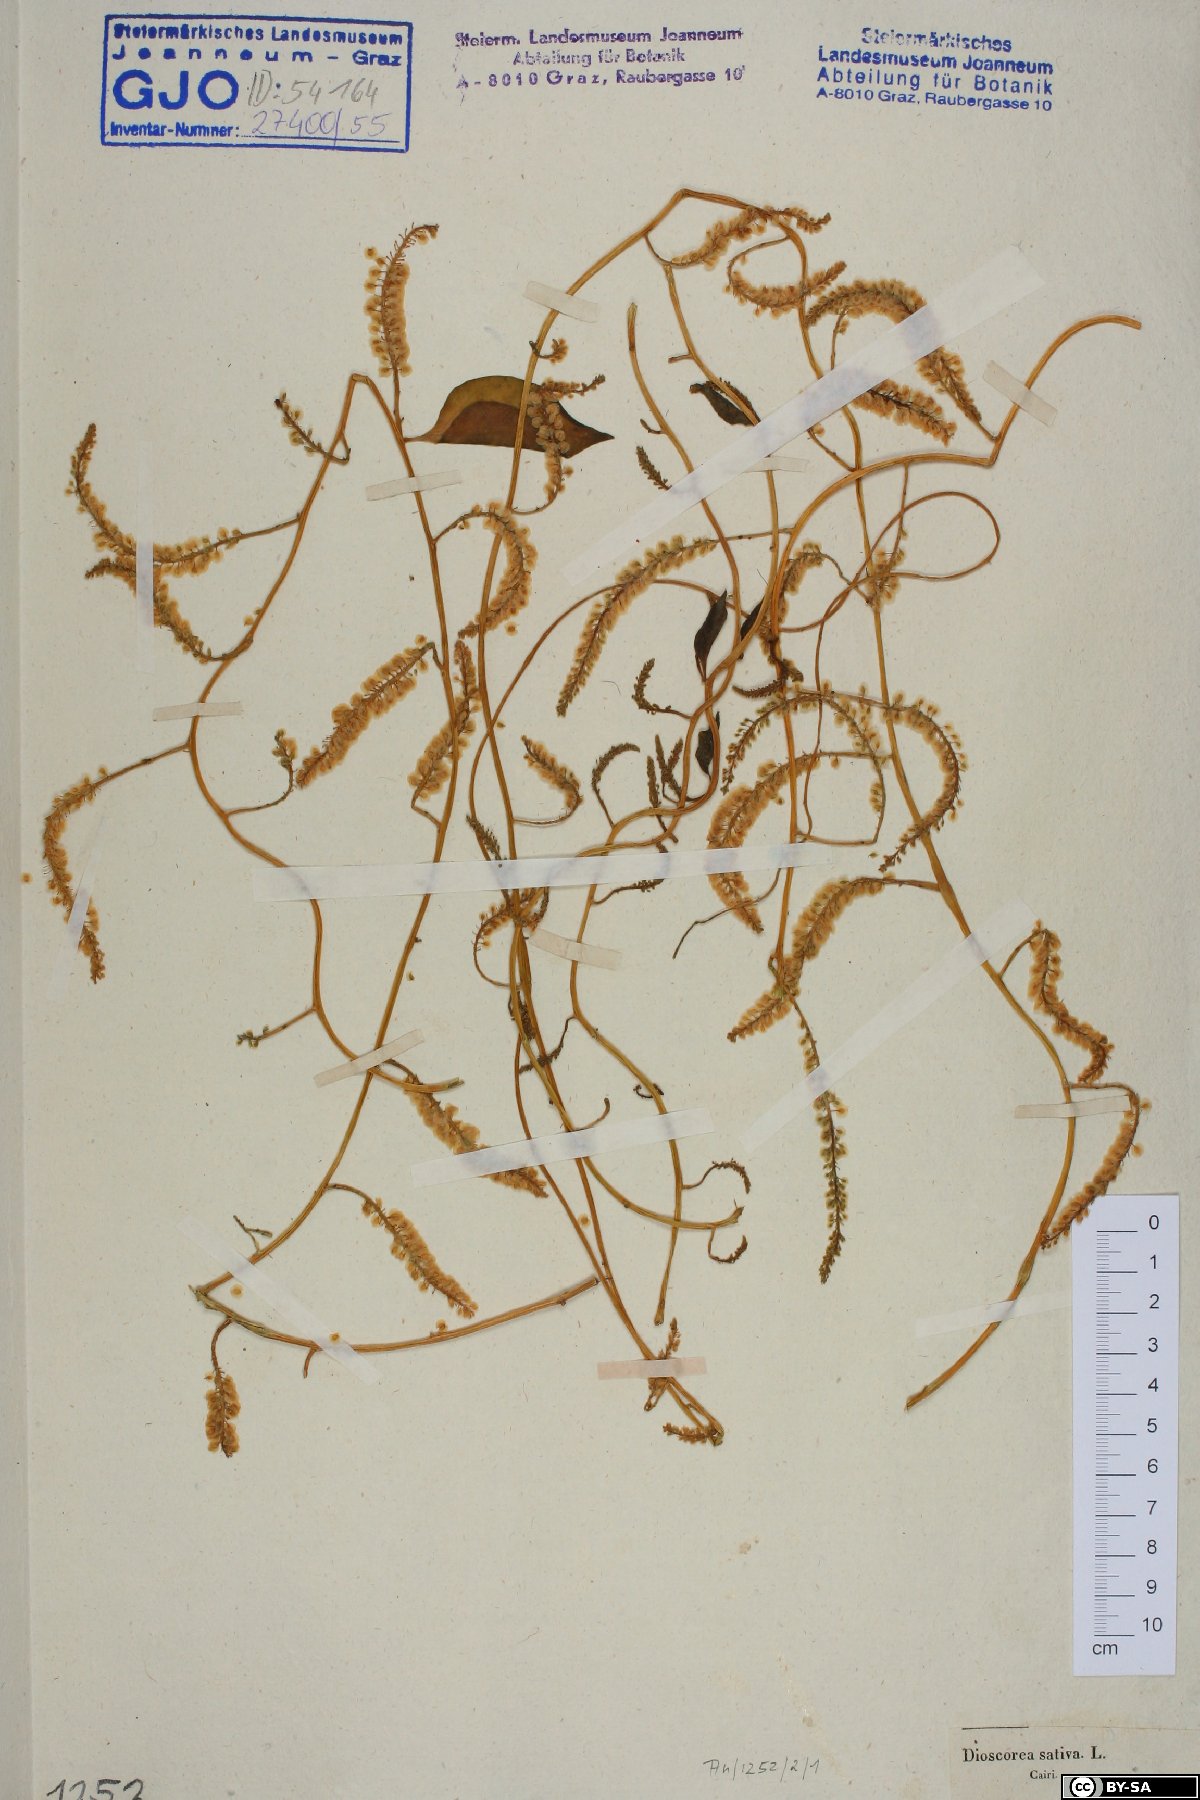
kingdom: Plantae
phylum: Tracheophyta
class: Liliopsida
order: Dioscoreales
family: Dioscoreaceae
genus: Dioscorea
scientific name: Dioscorea villosa
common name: Wild yam
